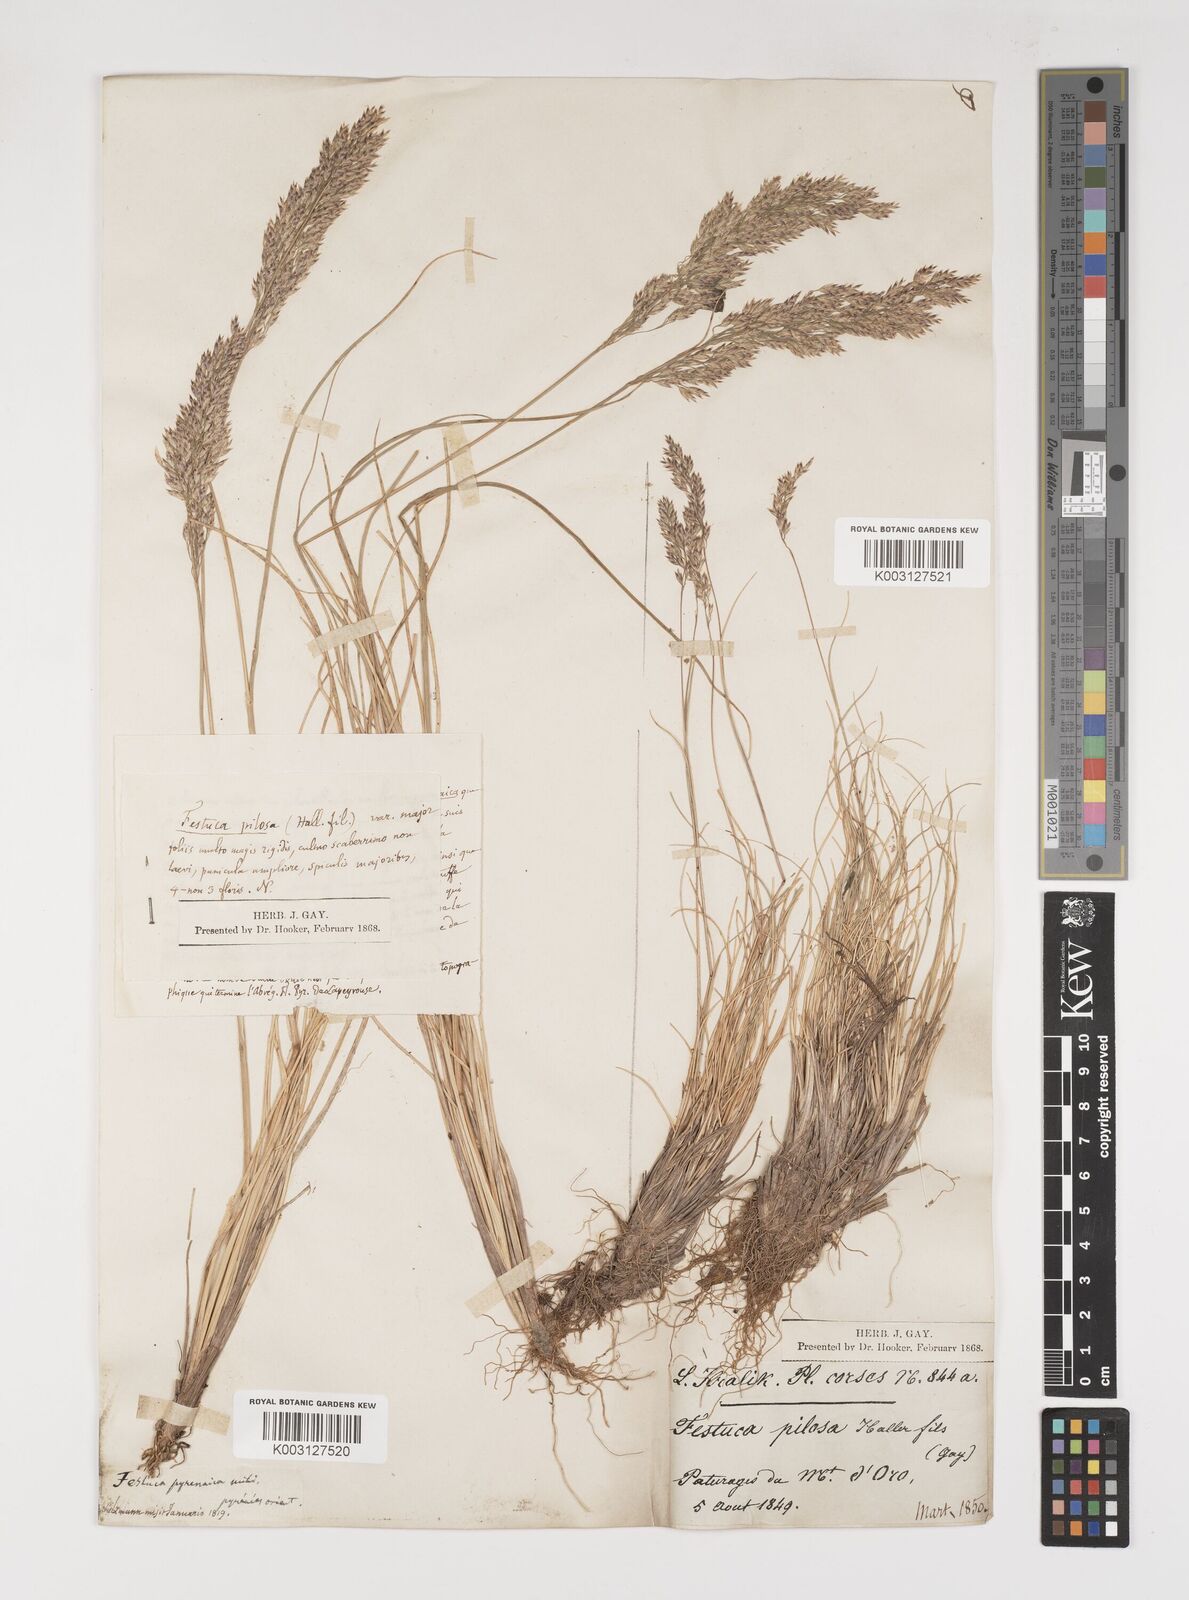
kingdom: Plantae
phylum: Tracheophyta
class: Liliopsida
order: Poales
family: Poaceae
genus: Bellardiochloa
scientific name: Bellardiochloa variegata
